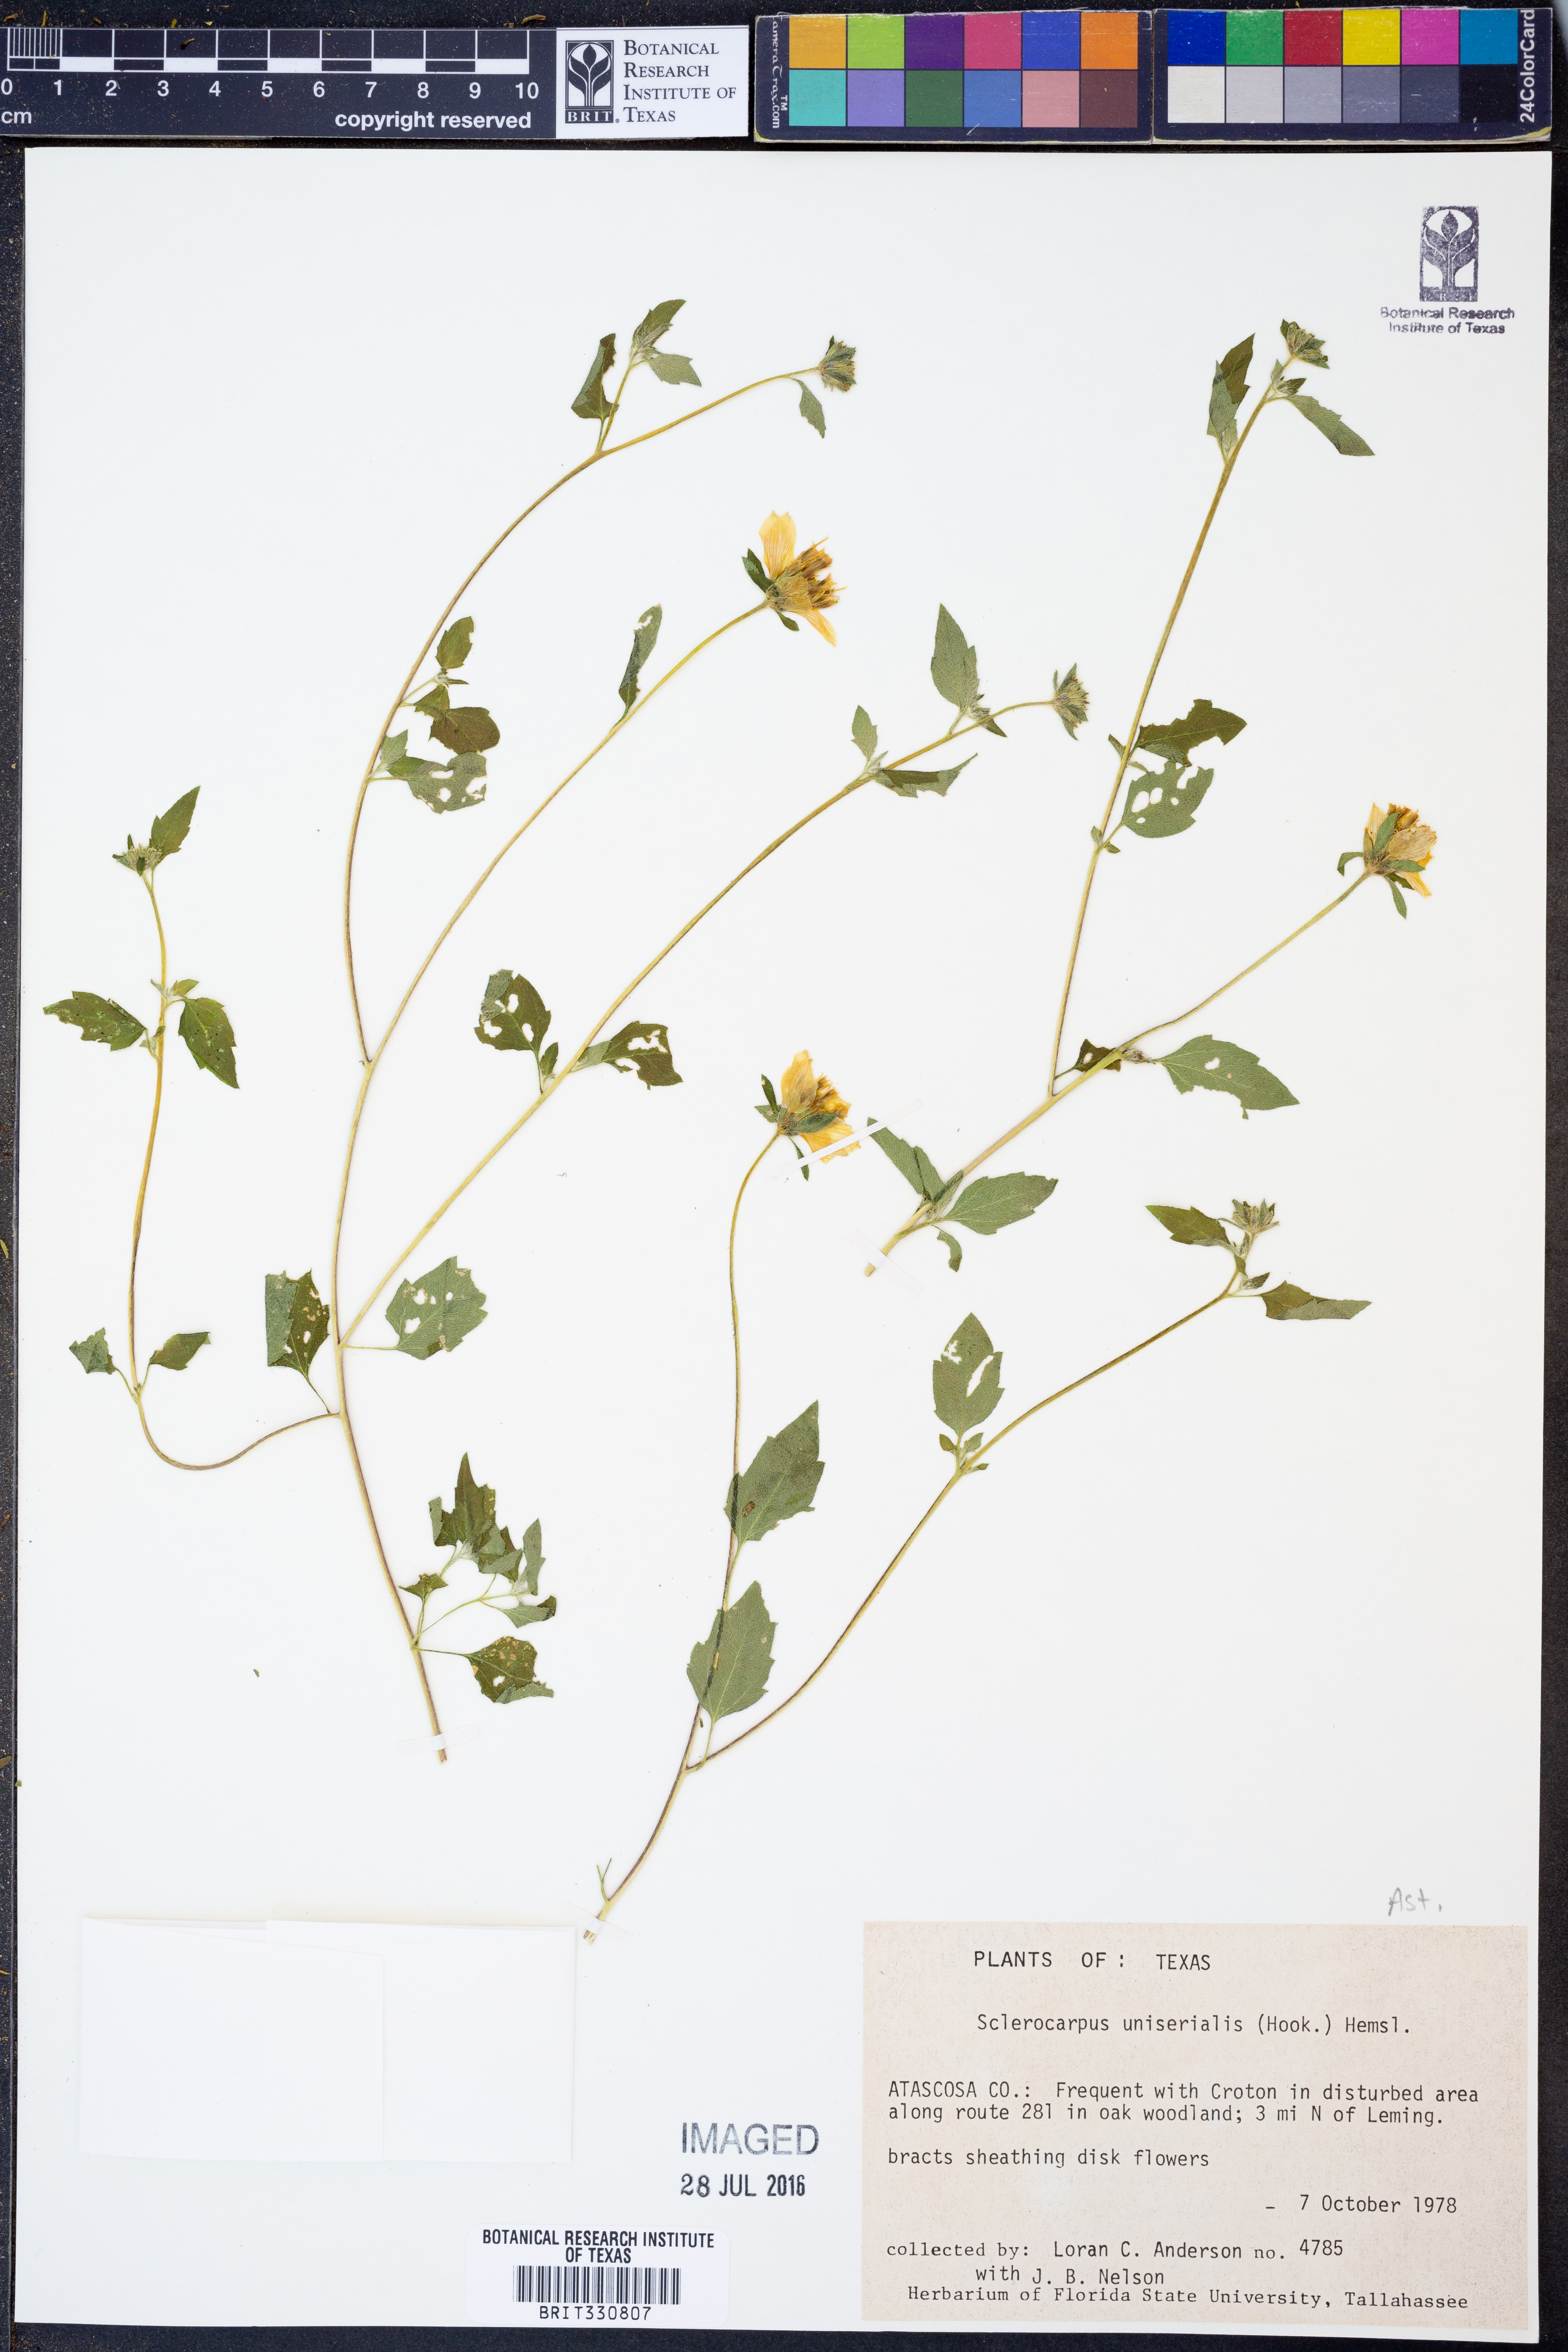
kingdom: Plantae
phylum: Tracheophyta
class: Magnoliopsida
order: Asterales
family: Asteraceae
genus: Sclerocarpus
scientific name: Sclerocarpus uniserialis
